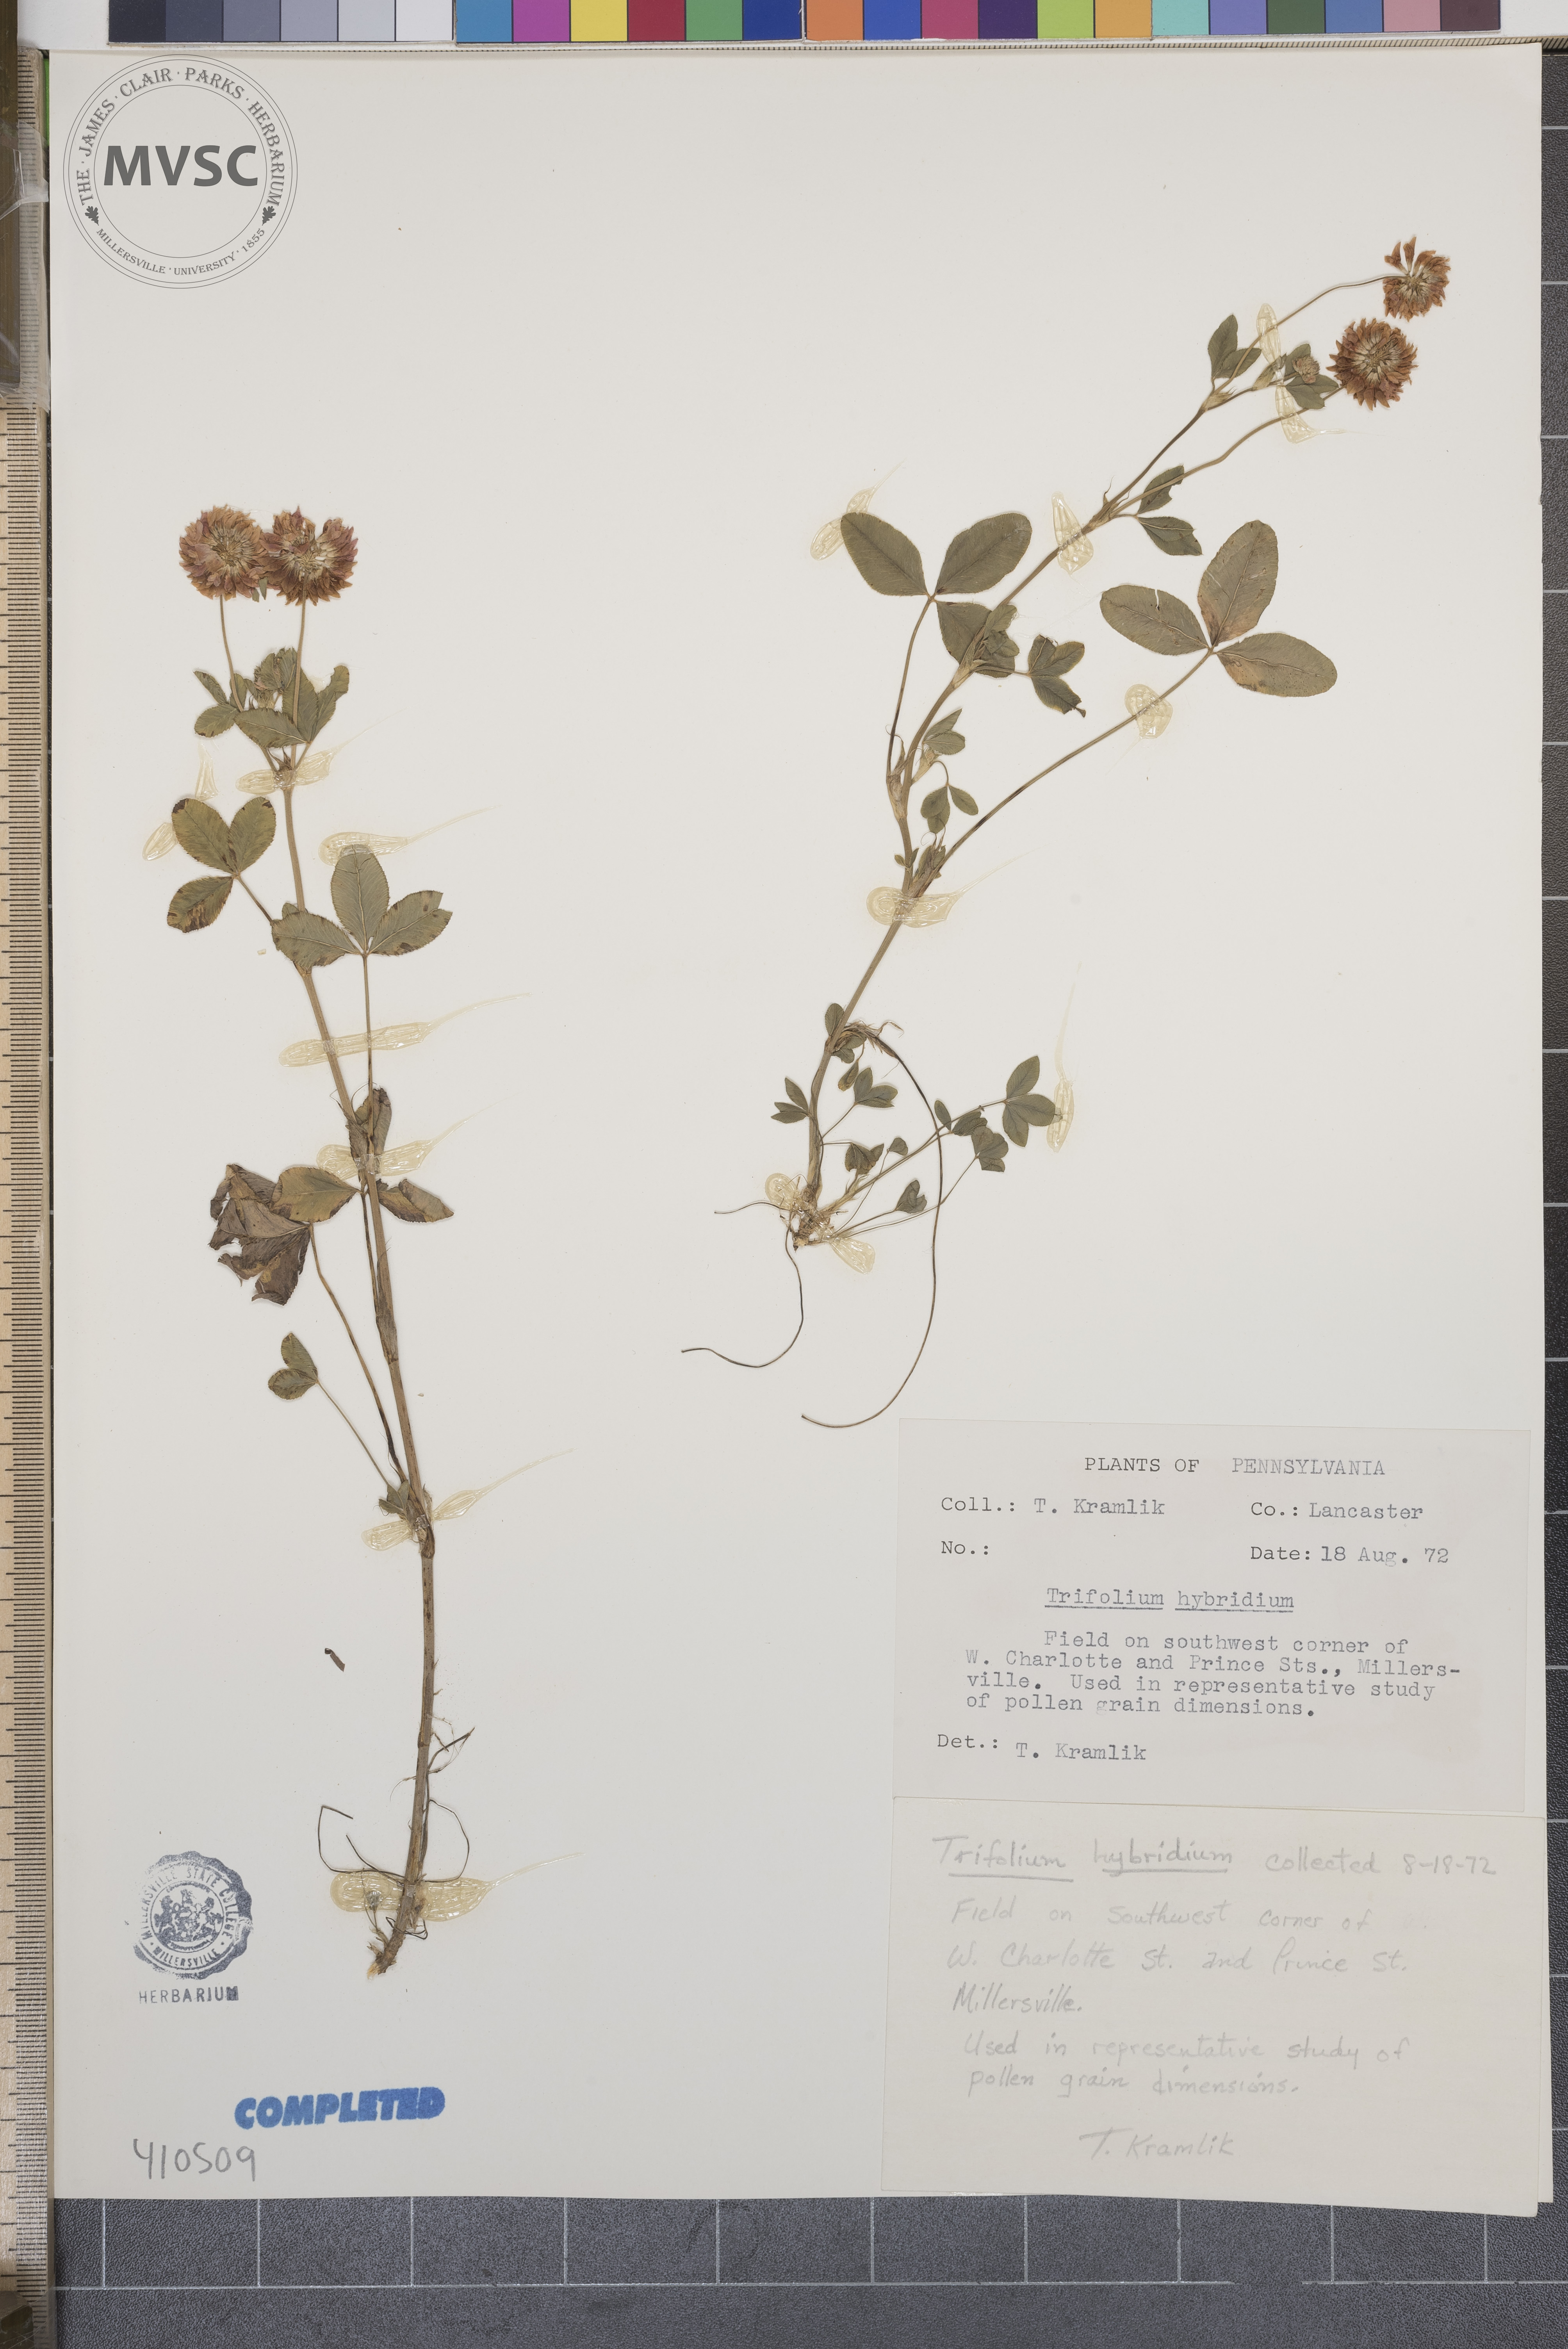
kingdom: Plantae
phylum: Tracheophyta
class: Magnoliopsida
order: Fabales
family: Fabaceae
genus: Trifolium
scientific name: Trifolium hybridum
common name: Alsike clover
